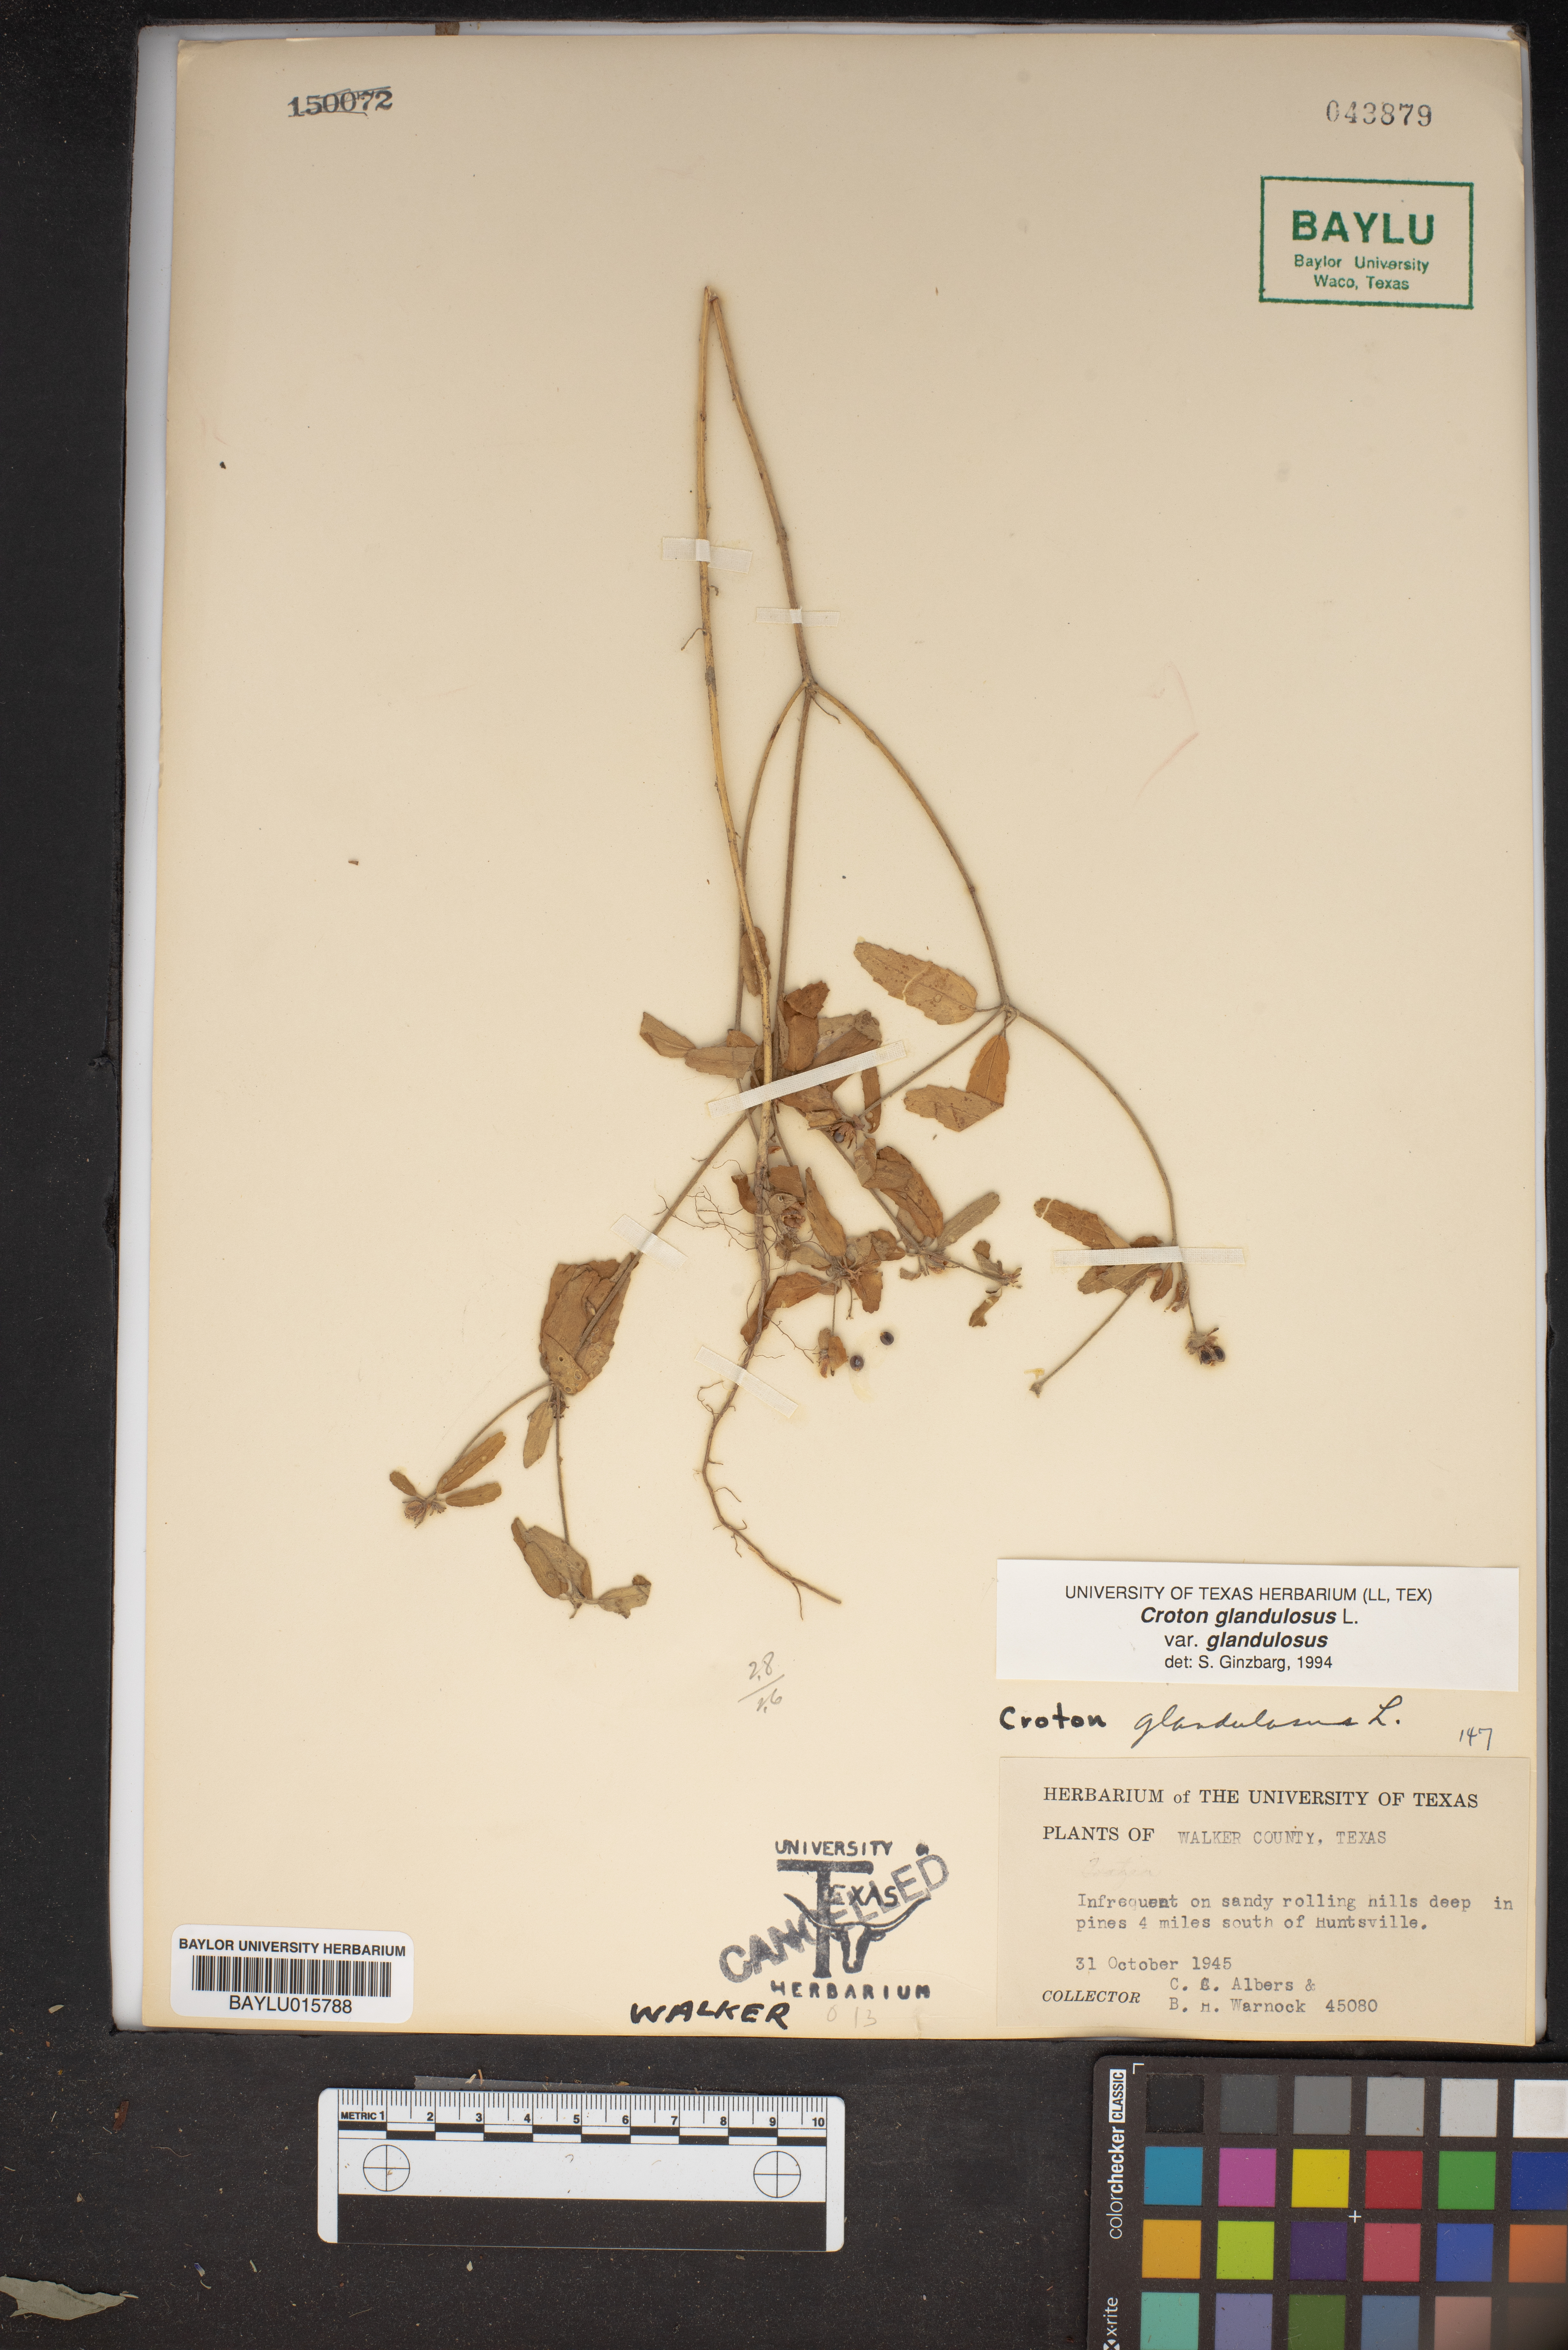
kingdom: Plantae
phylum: Tracheophyta
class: Magnoliopsida
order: Malpighiales
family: Euphorbiaceae
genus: Croton
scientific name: Croton glandulosus
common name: Tropic croton
